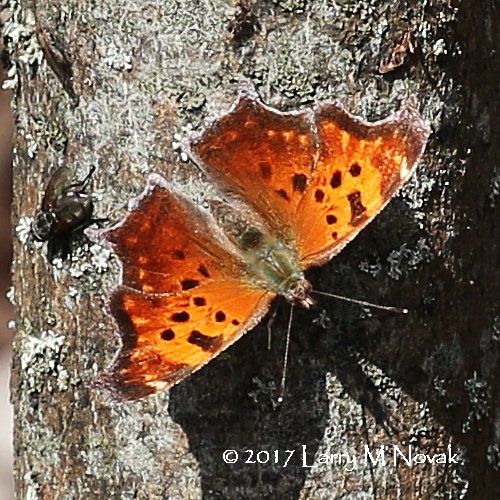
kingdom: Animalia
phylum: Arthropoda
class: Insecta
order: Lepidoptera
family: Nymphalidae
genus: Polygonia
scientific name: Polygonia comma
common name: Eastern Comma
